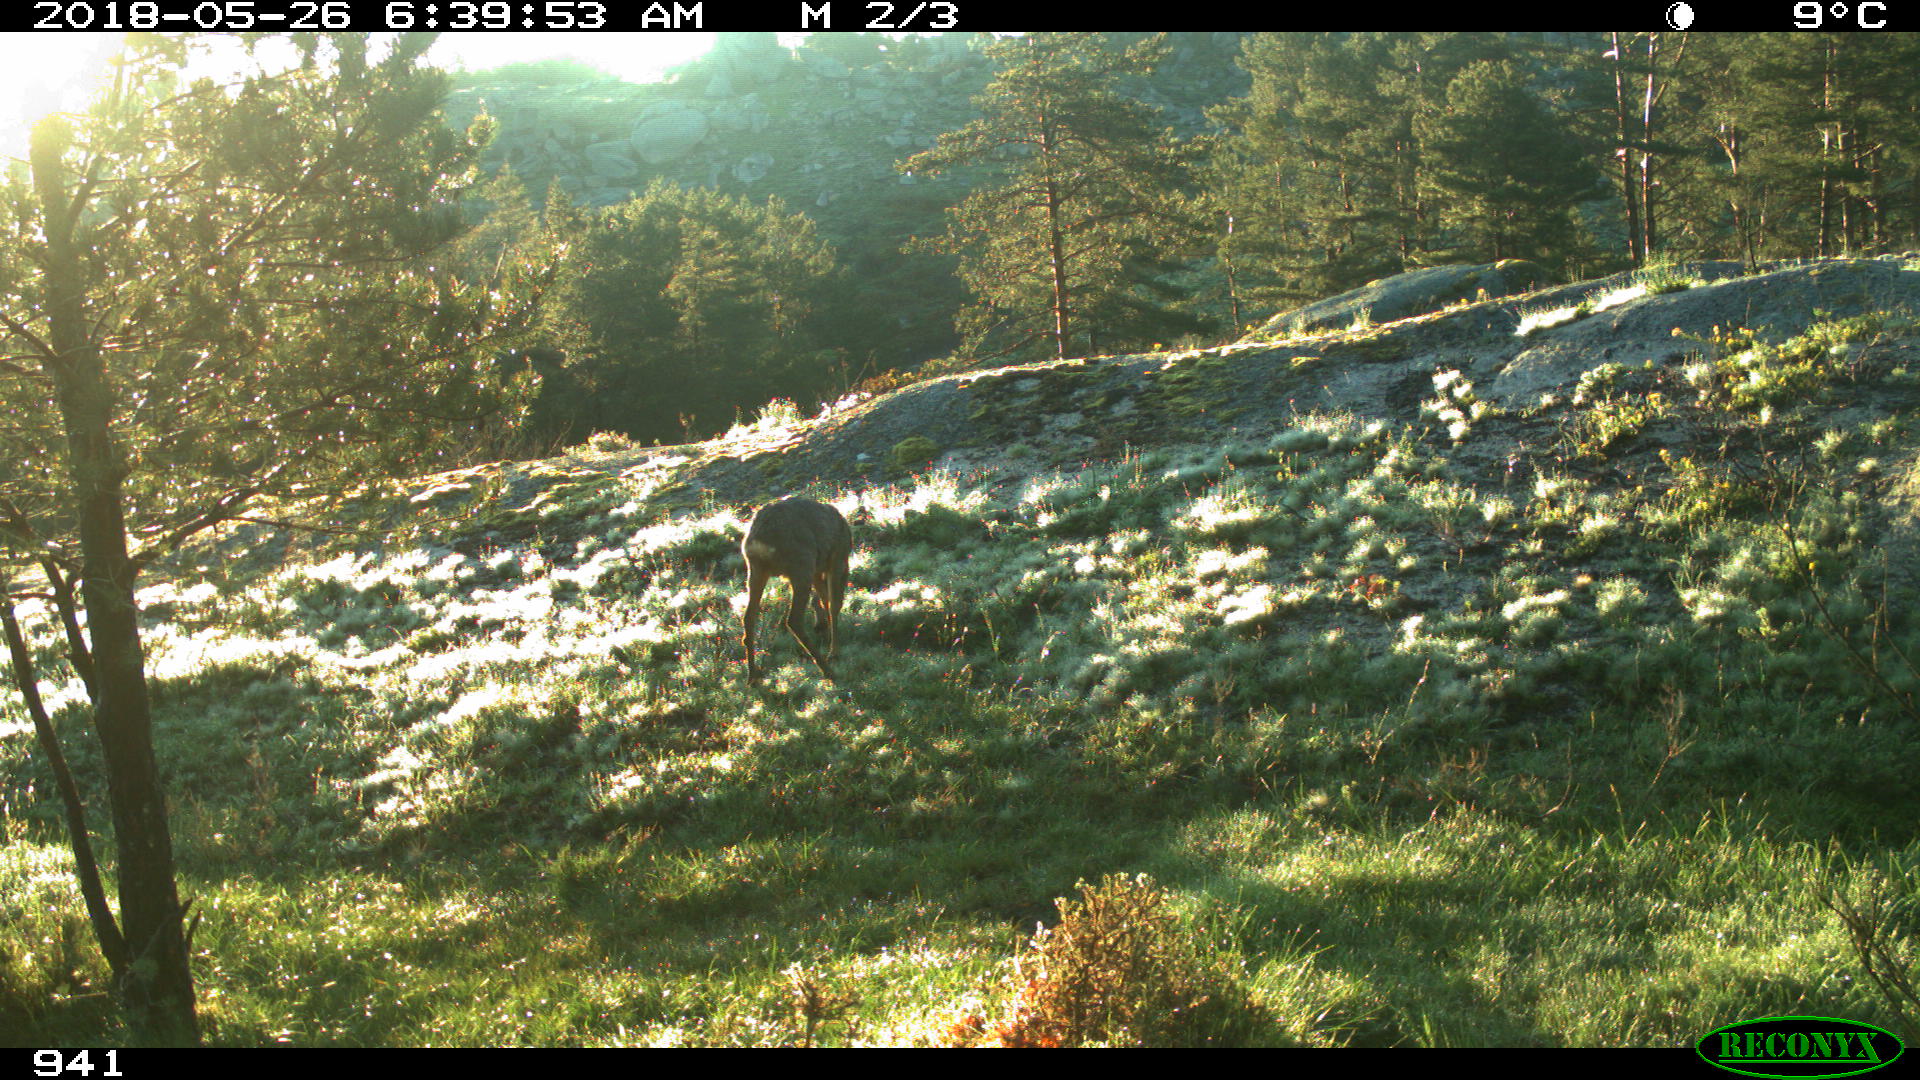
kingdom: Animalia
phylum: Chordata
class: Mammalia
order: Artiodactyla
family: Cervidae
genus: Capreolus
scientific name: Capreolus capreolus
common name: Western roe deer
